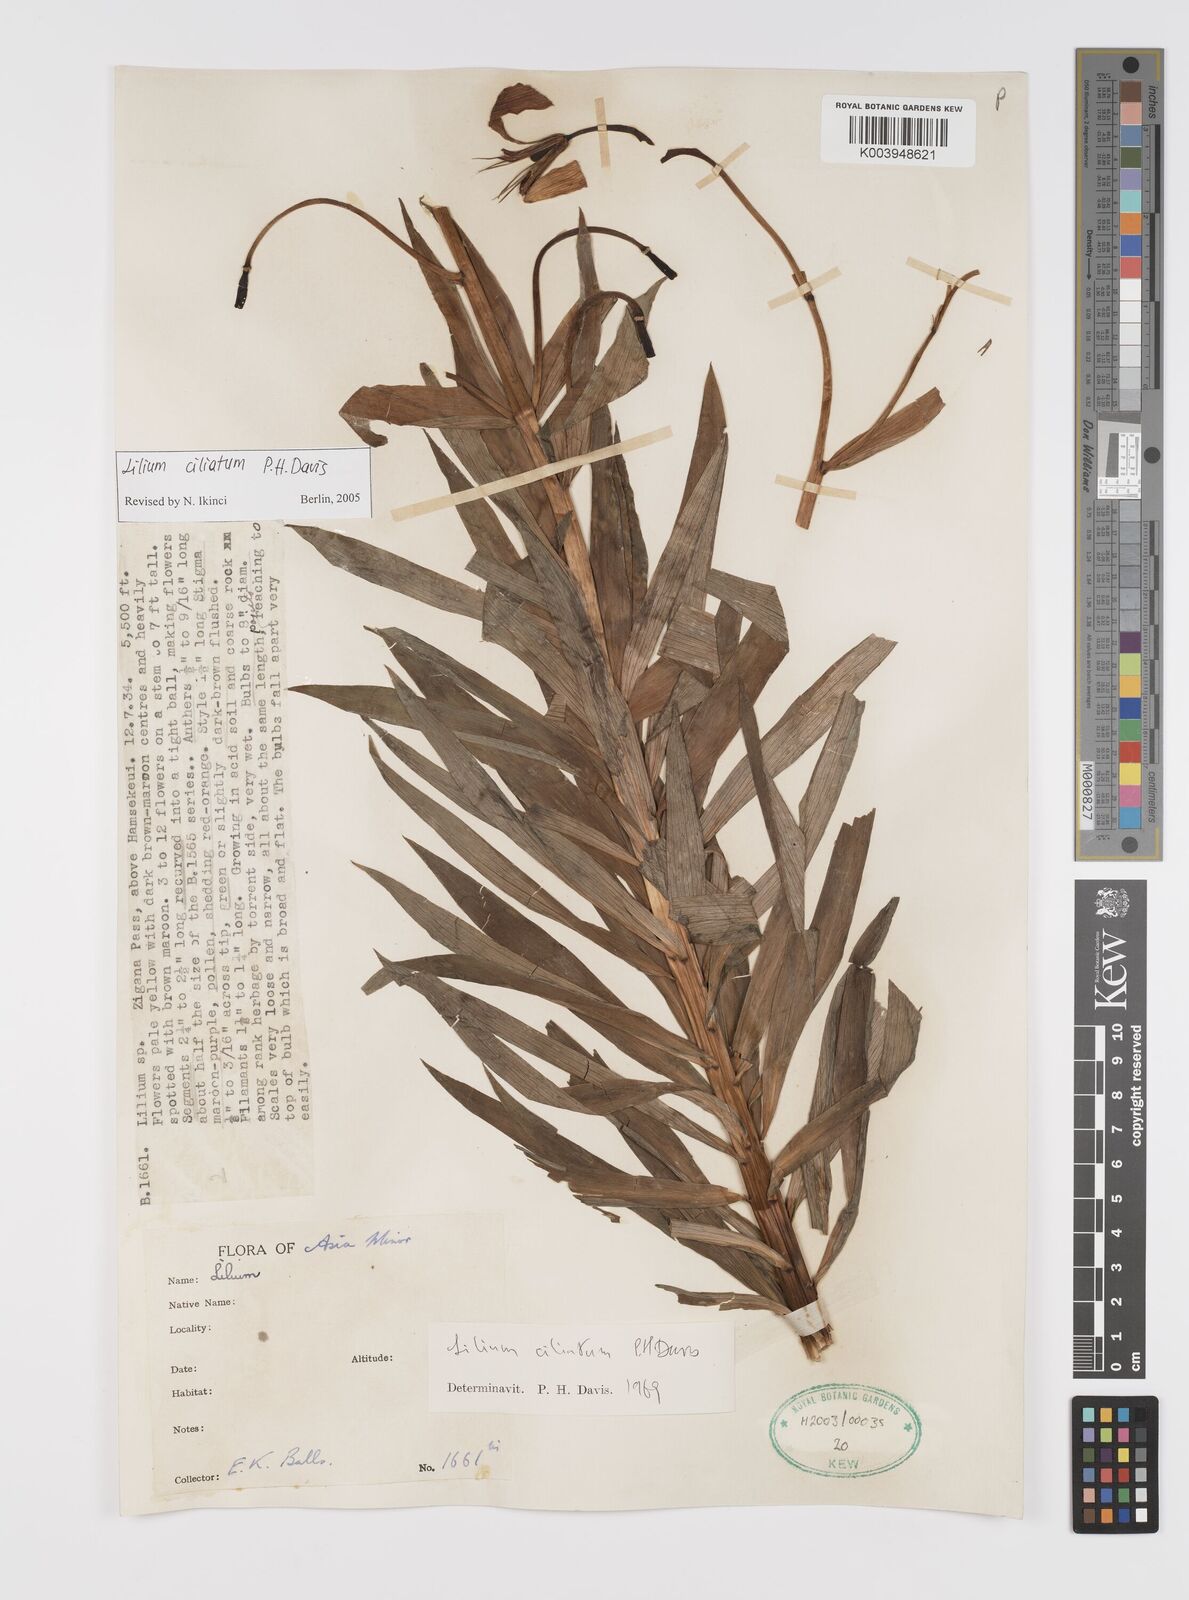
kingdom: Plantae
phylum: Tracheophyta
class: Liliopsida
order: Liliales
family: Liliaceae
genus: Lilium
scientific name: Lilium ciliatum
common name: Ciliate lily
